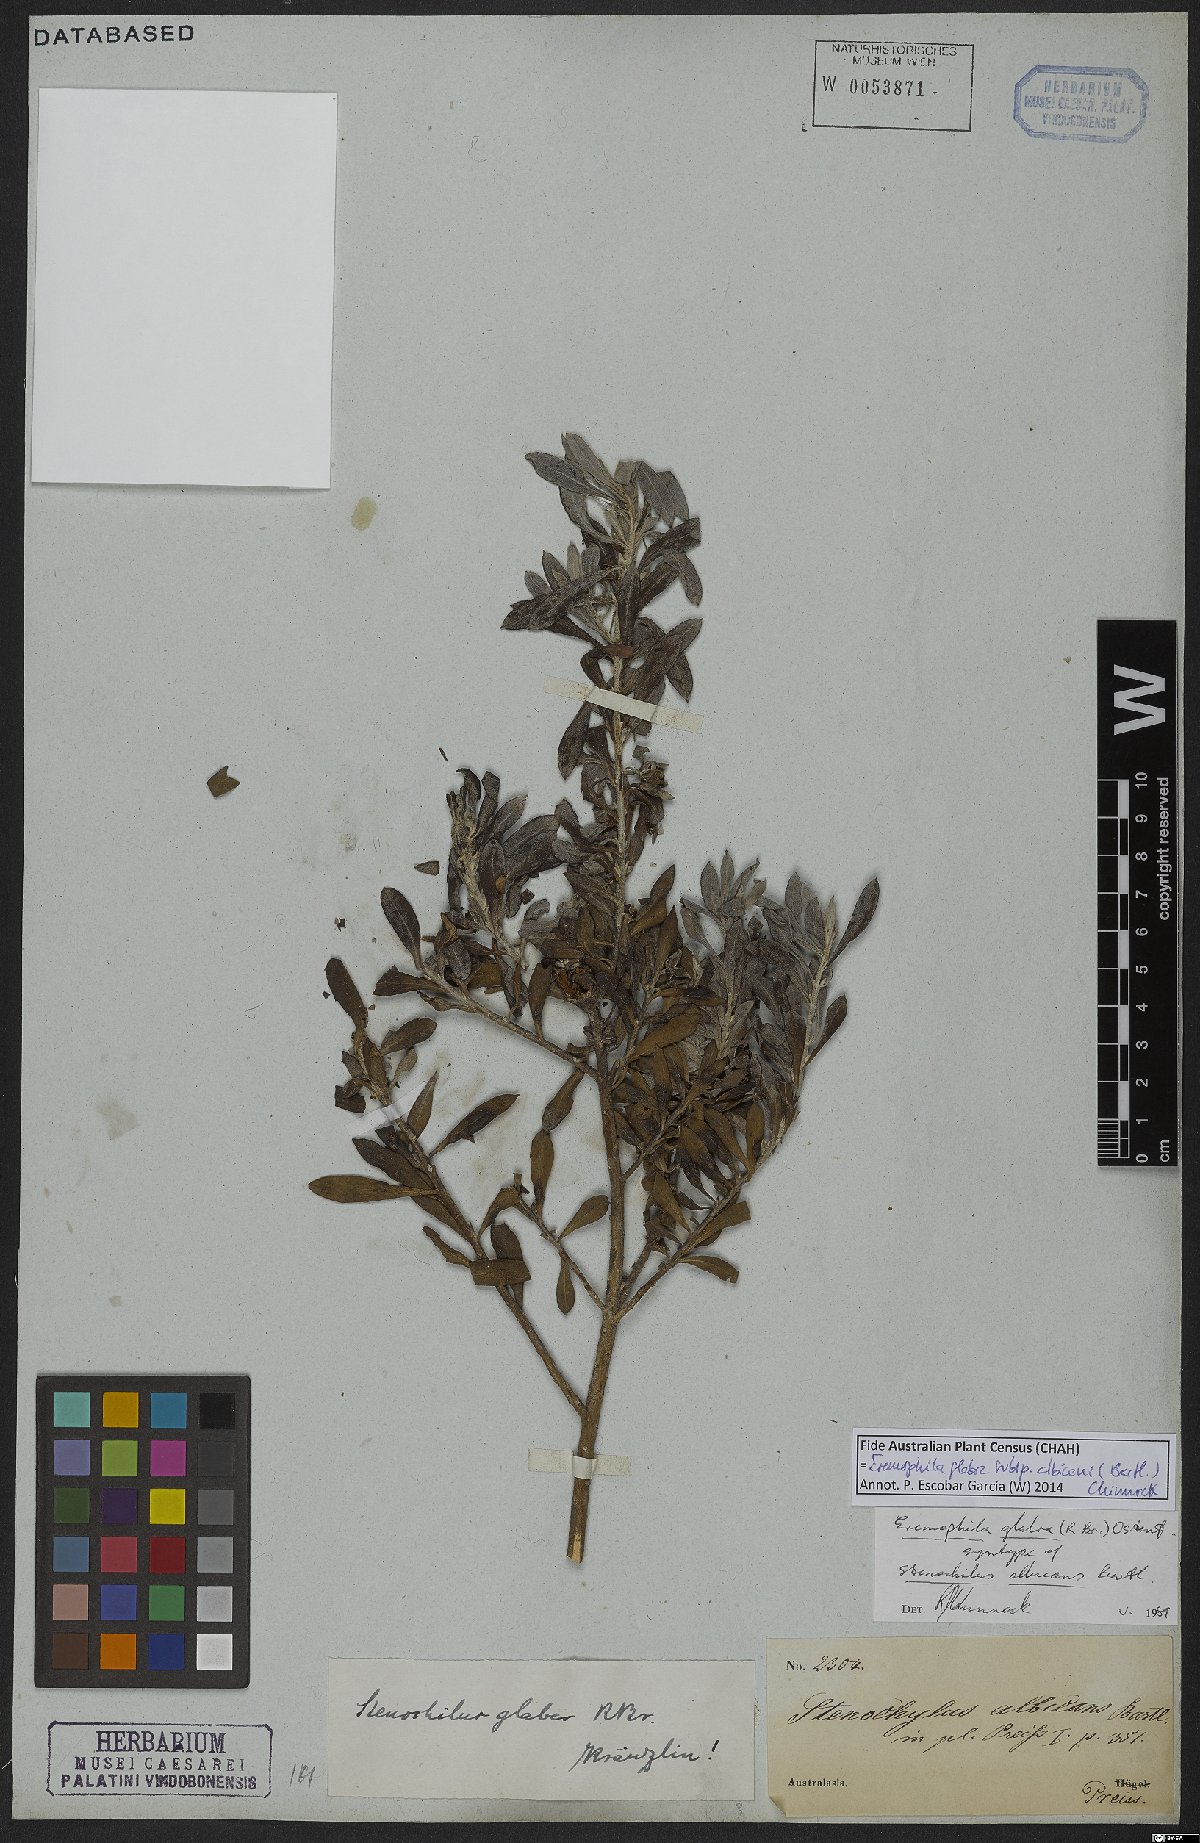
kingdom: Plantae
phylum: Tracheophyta
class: Magnoliopsida
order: Lamiales
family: Scrophulariaceae
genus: Eremophila
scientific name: Eremophila glabra
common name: Black-fuchsia
